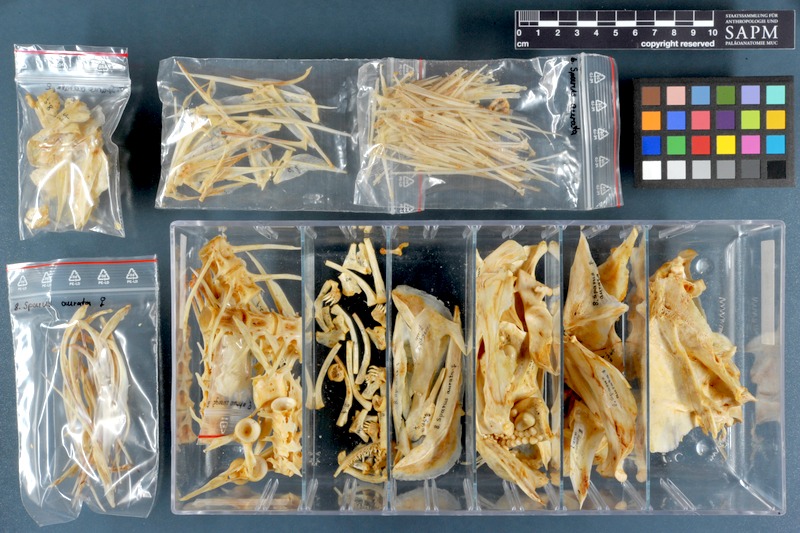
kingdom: Animalia
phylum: Chordata
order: Perciformes
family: Sparidae
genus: Sparus
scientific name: Sparus aurata
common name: Gilthead
